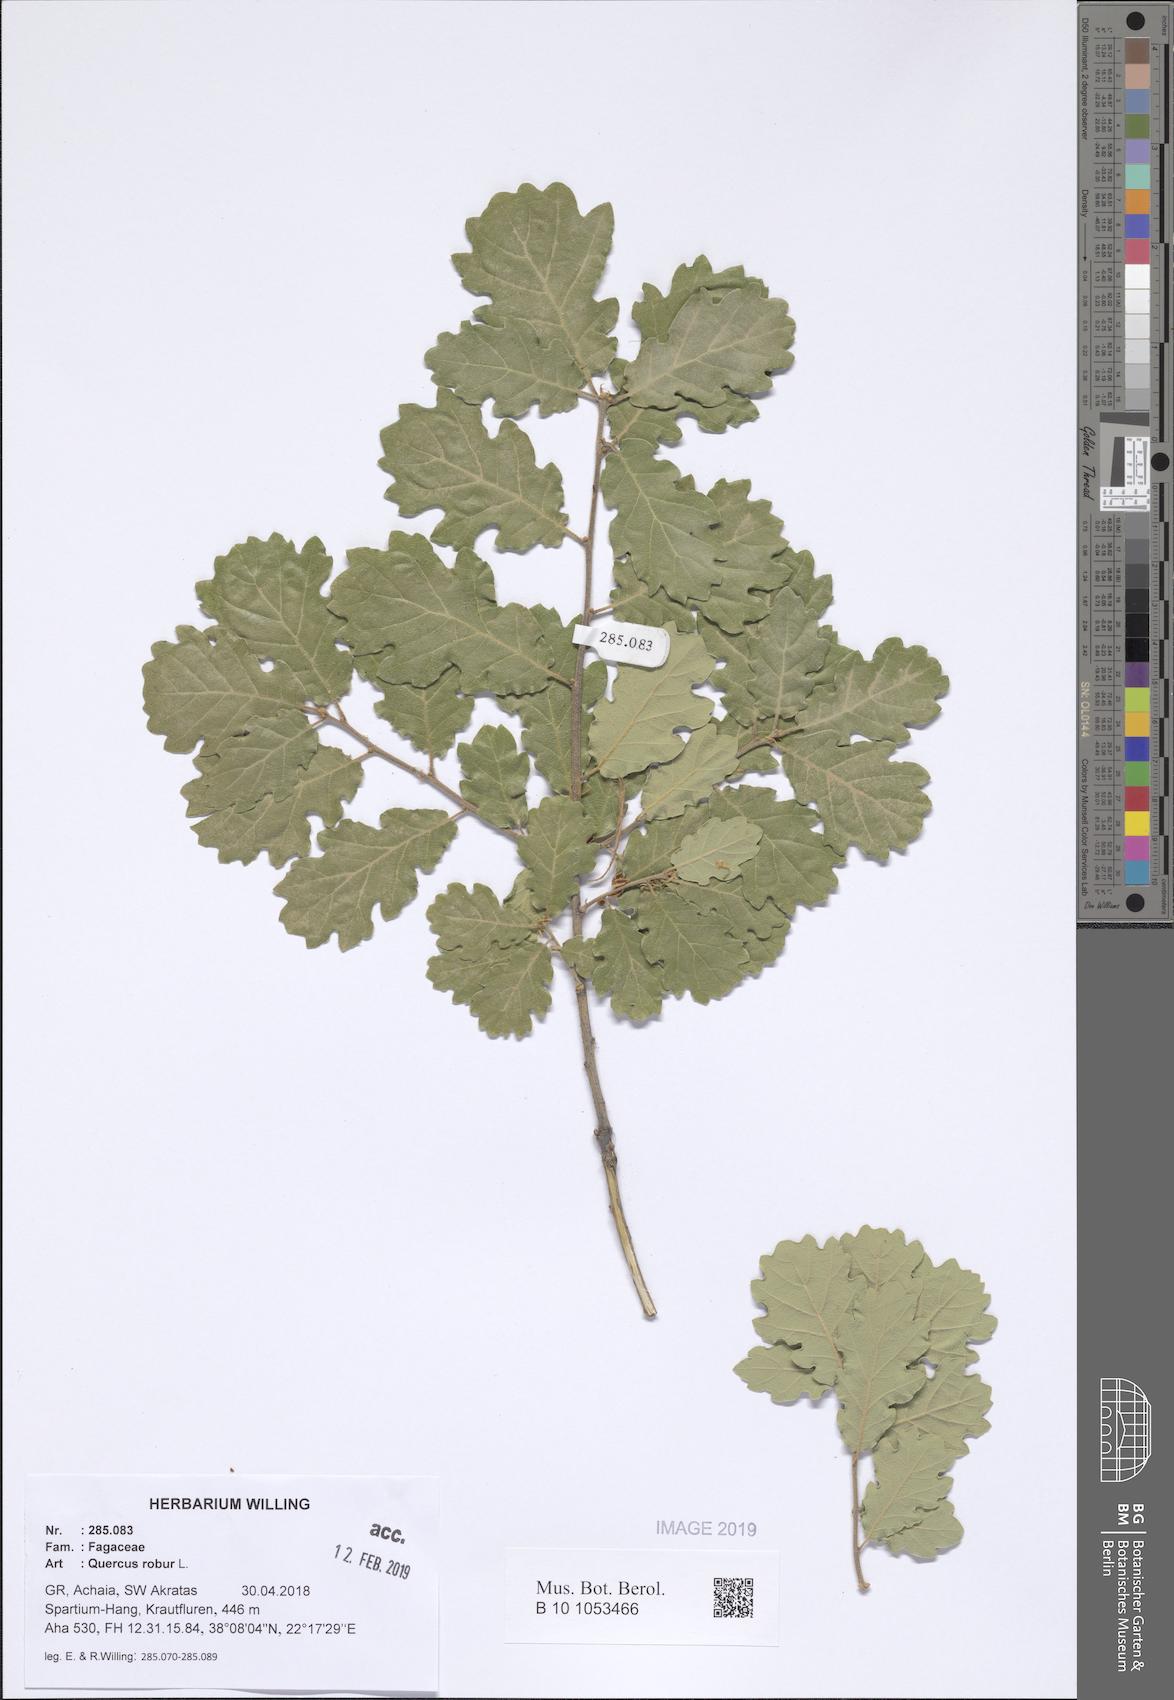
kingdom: Plantae
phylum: Tracheophyta
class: Magnoliopsida
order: Fagales
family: Fagaceae
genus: Quercus
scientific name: Quercus robur
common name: Pedunculate oak
